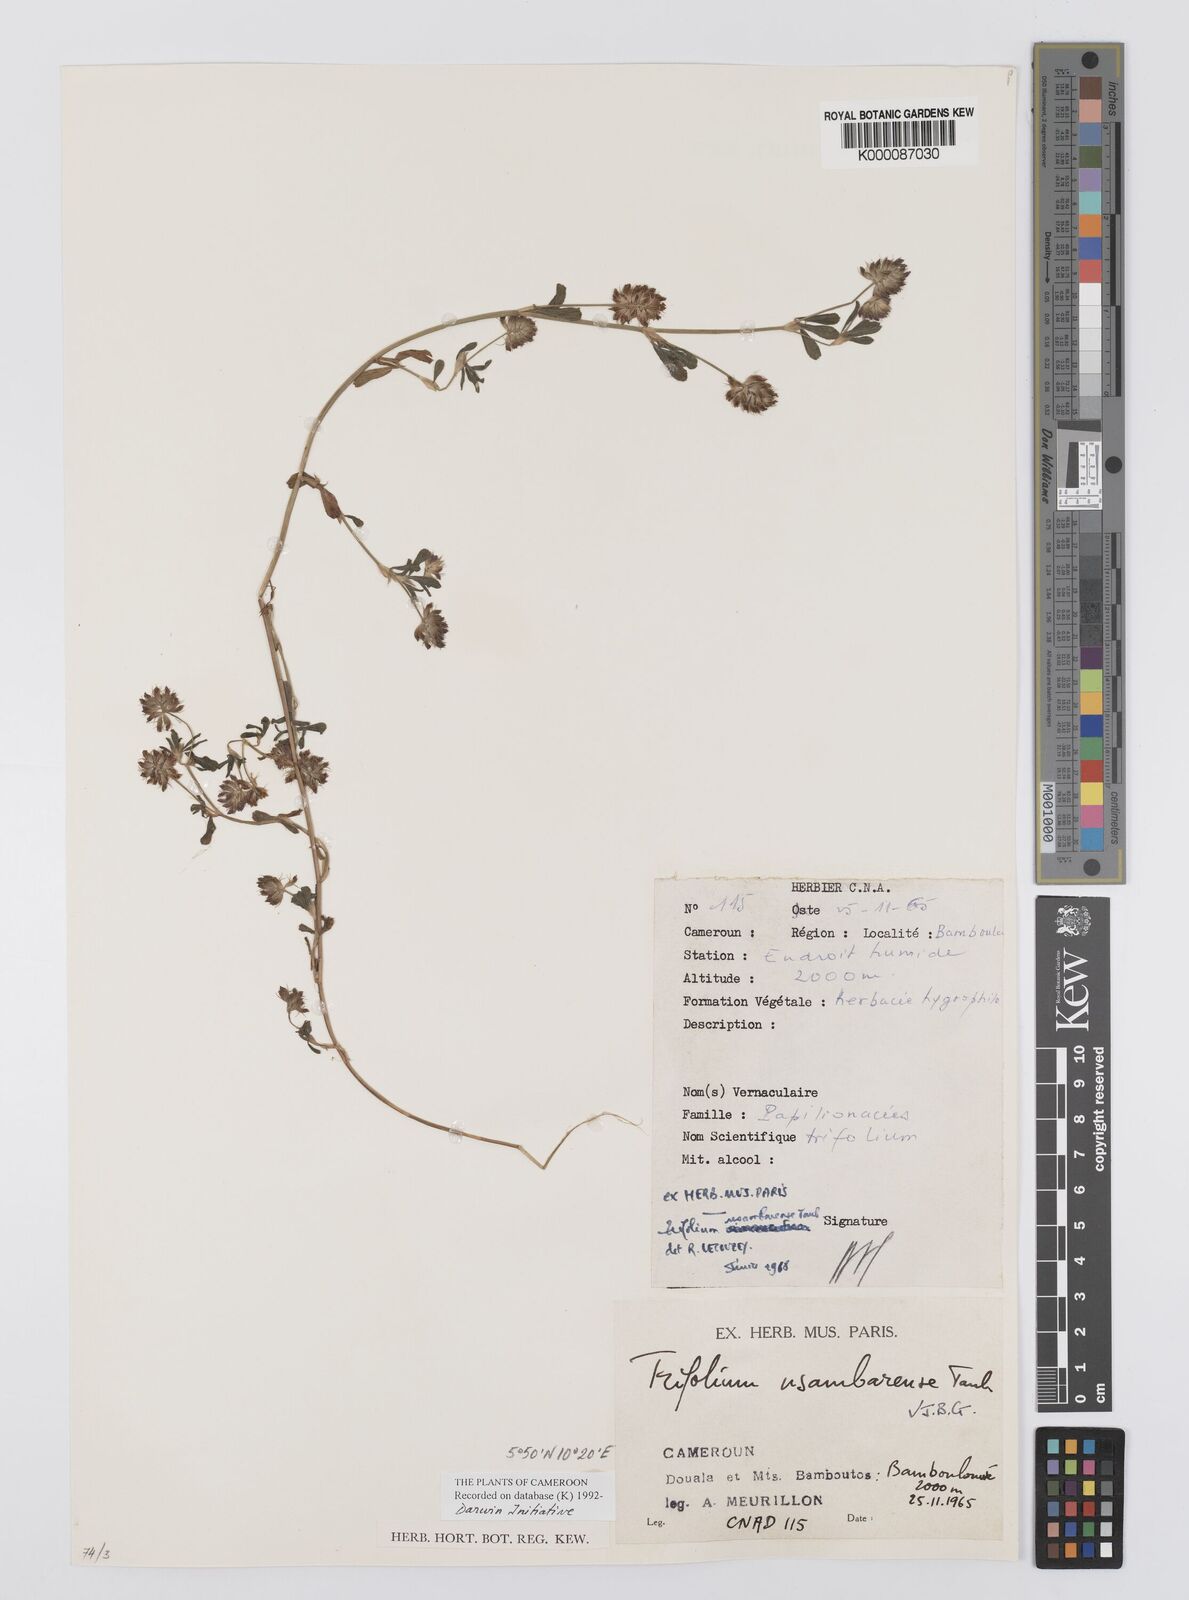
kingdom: Plantae
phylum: Tracheophyta
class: Magnoliopsida
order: Fabales
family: Fabaceae
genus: Trifolium
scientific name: Trifolium usambarense
